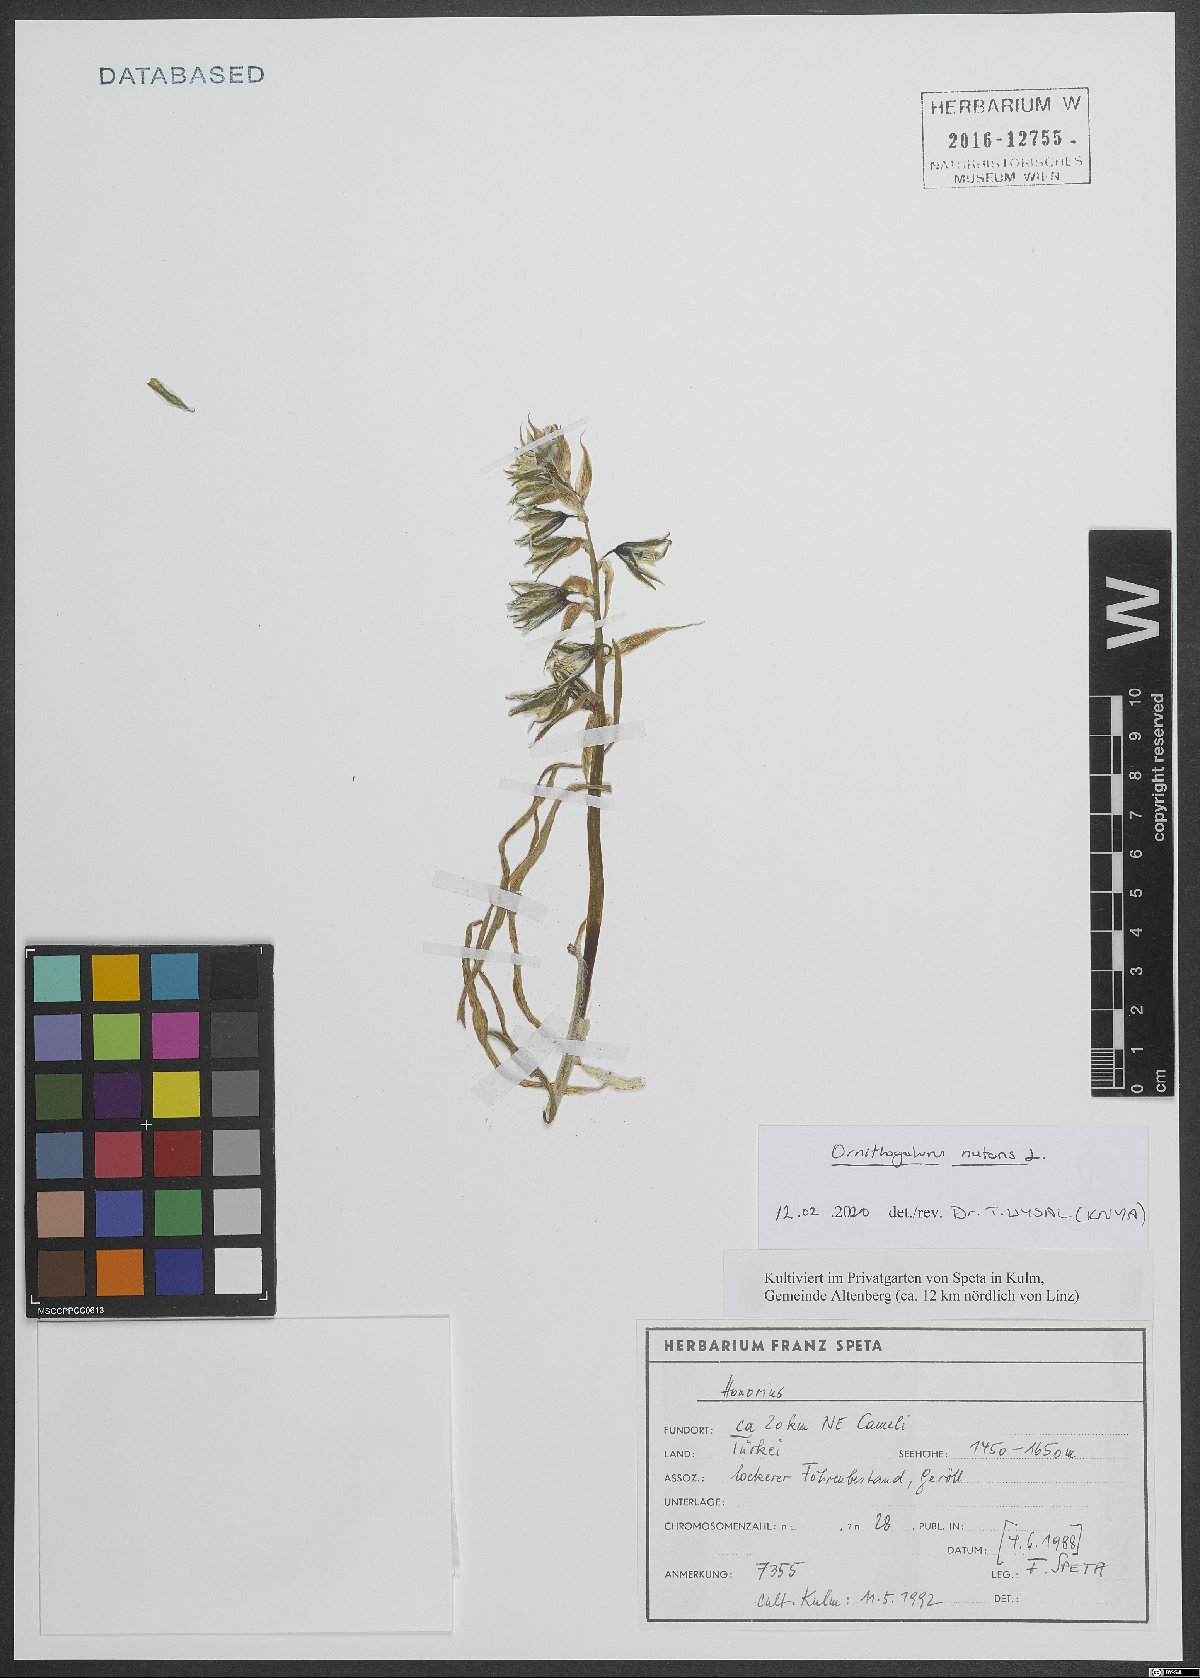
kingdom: Plantae
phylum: Tracheophyta
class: Liliopsida
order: Asparagales
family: Asparagaceae
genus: Ornithogalum
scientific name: Ornithogalum nutans
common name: Drooping star-of-bethlehem
